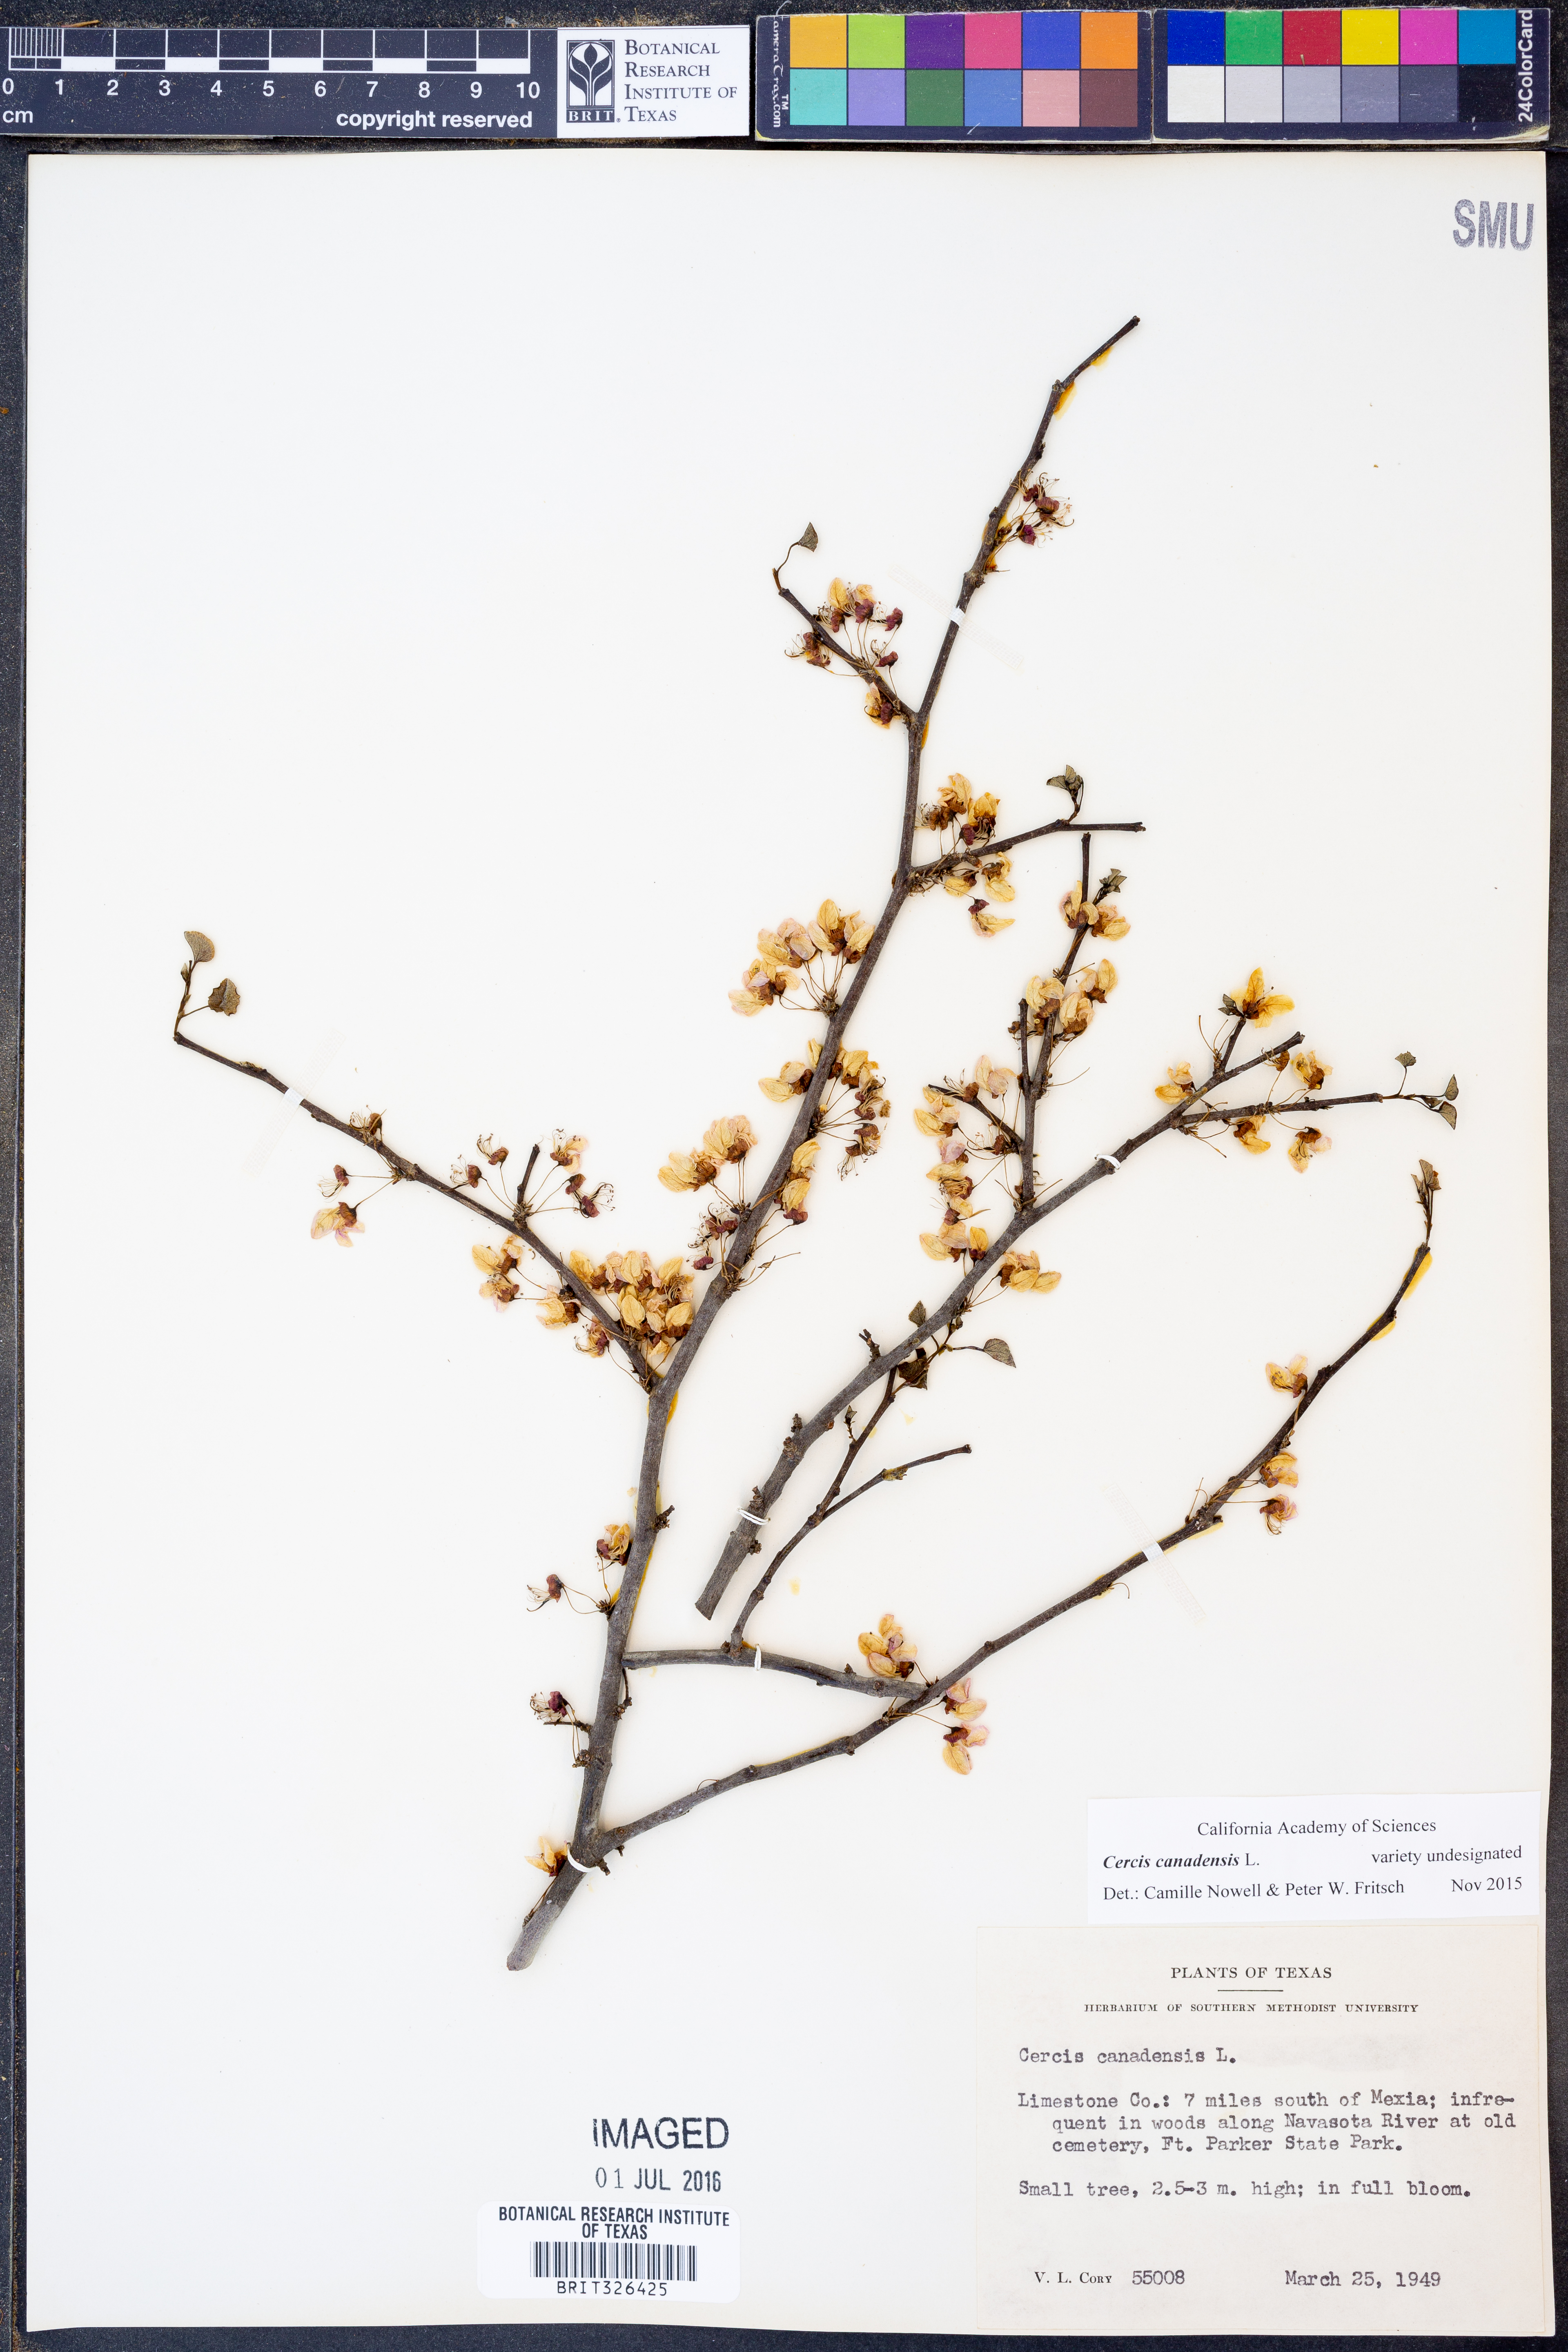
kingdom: Plantae
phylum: Tracheophyta
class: Magnoliopsida
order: Fabales
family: Fabaceae
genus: Cercis
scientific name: Cercis canadensis
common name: Eastern redbud
